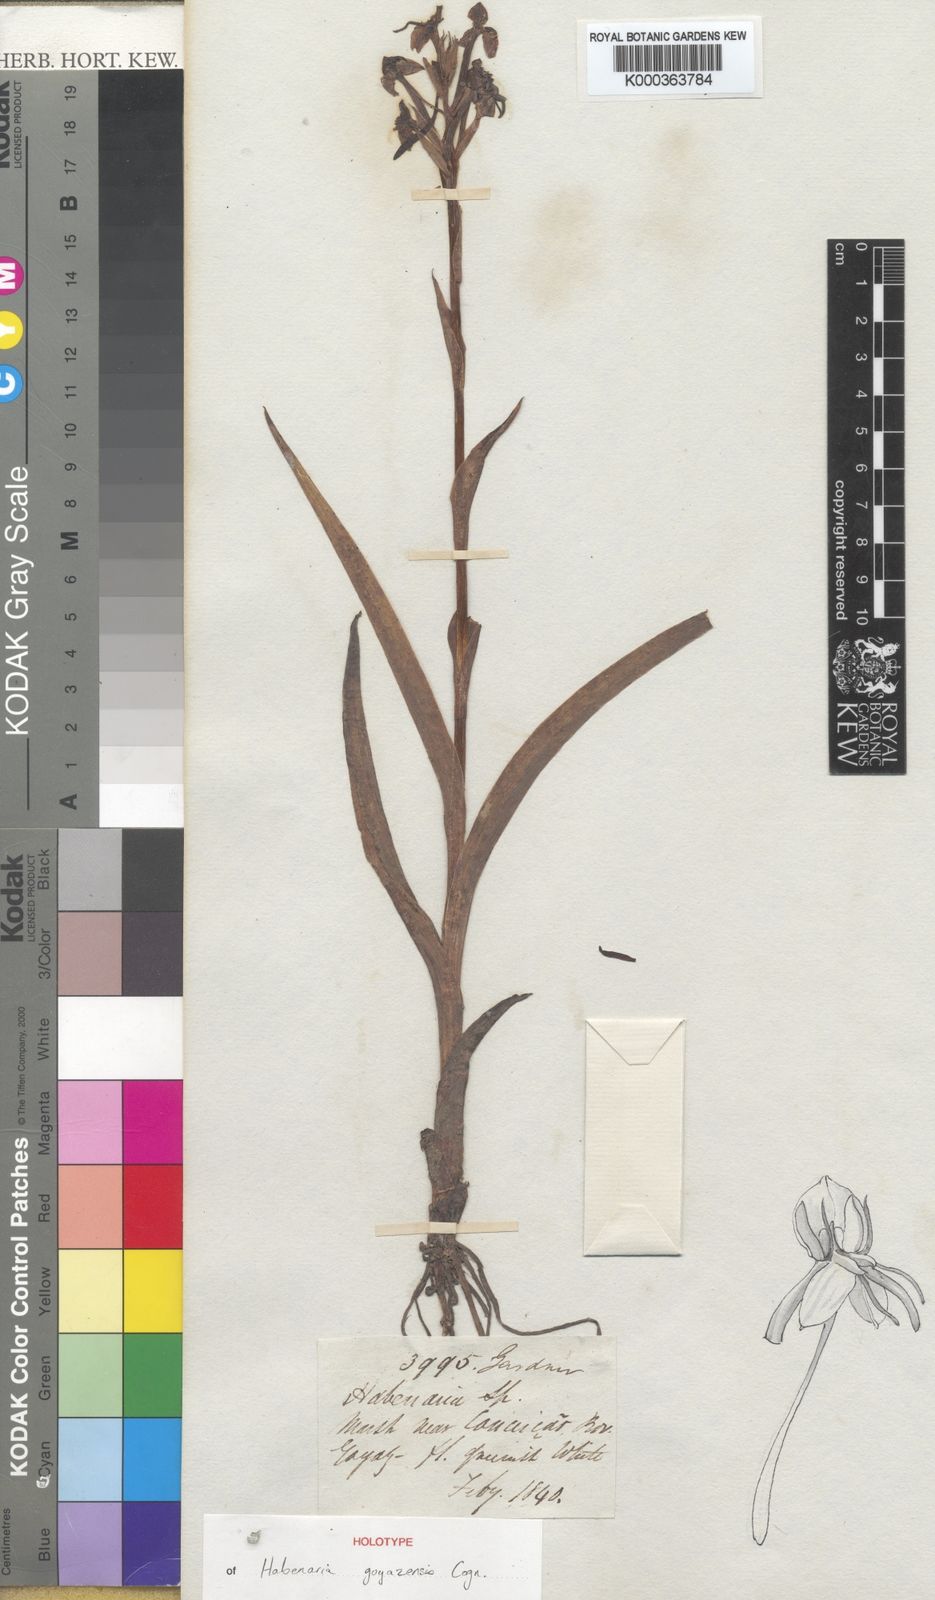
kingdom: Plantae
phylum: Tracheophyta
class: Liliopsida
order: Asparagales
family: Orchidaceae
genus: Habenaria
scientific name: Habenaria goyazensis
